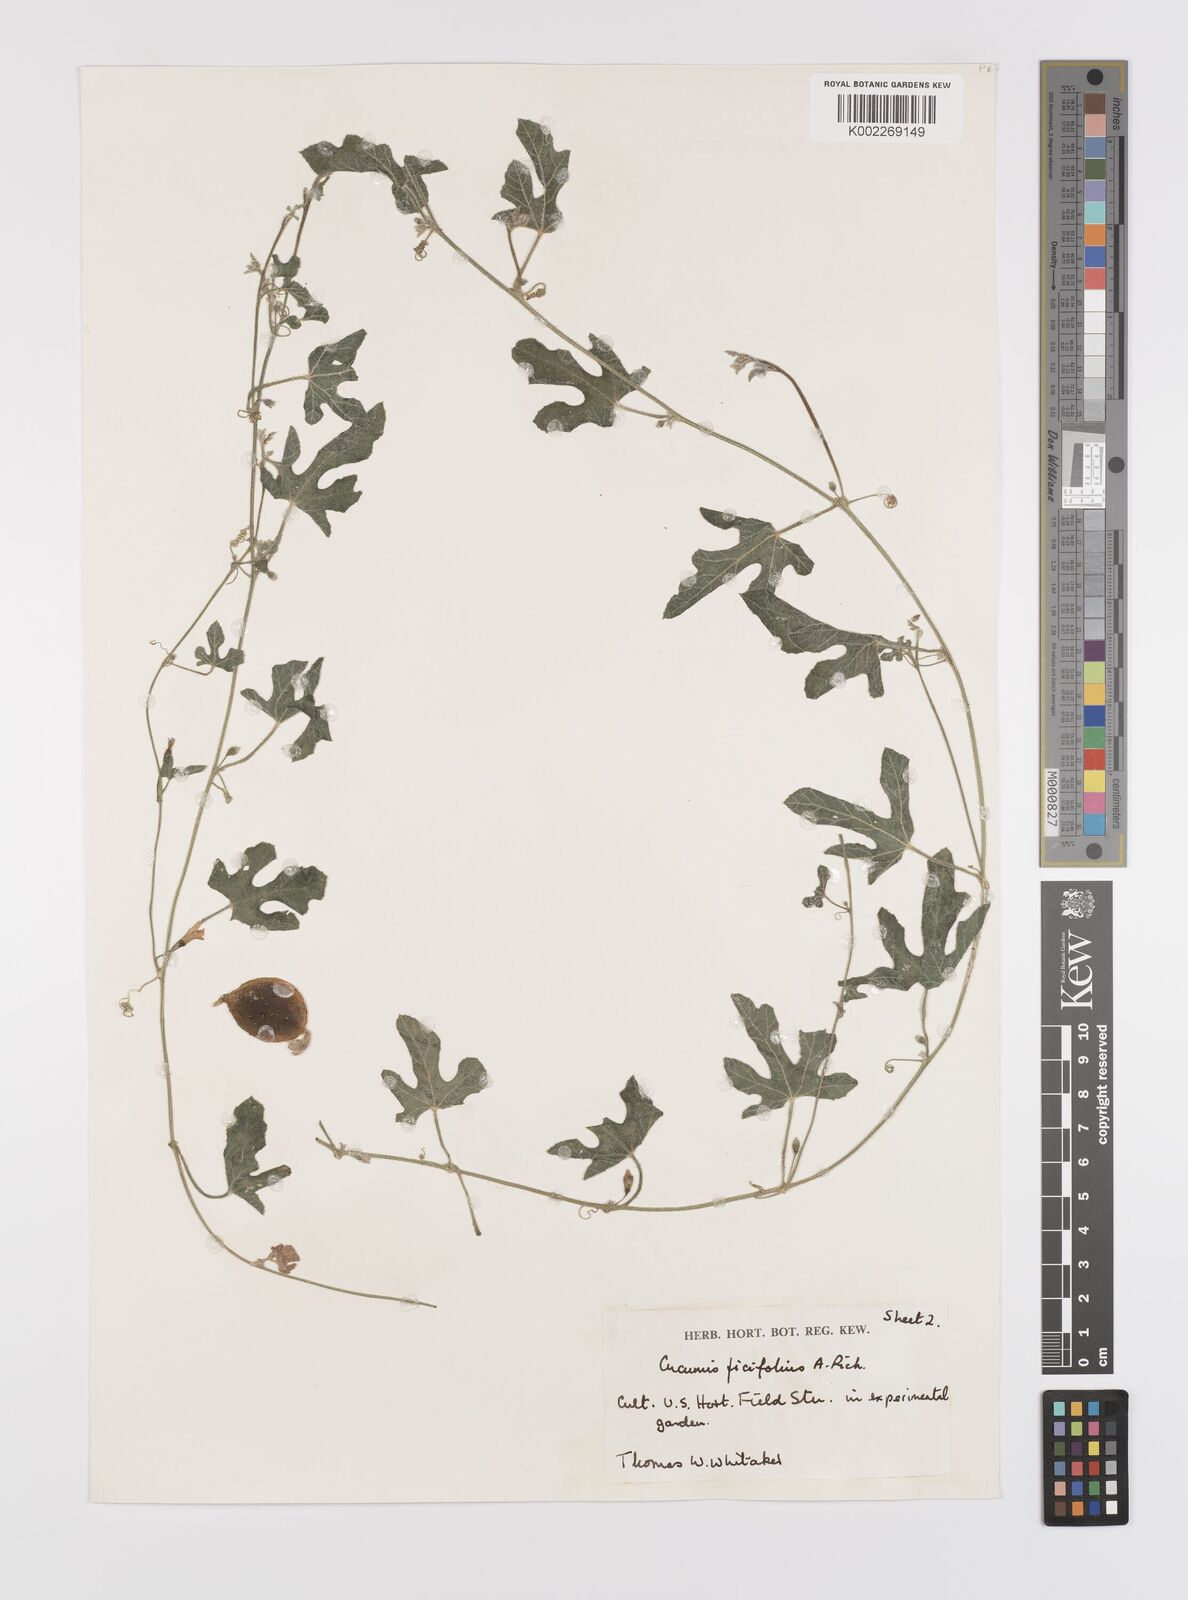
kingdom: Plantae
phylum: Tracheophyta
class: Magnoliopsida
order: Cucurbitales
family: Cucurbitaceae
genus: Cucumis
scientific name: Cucumis ficifolius
